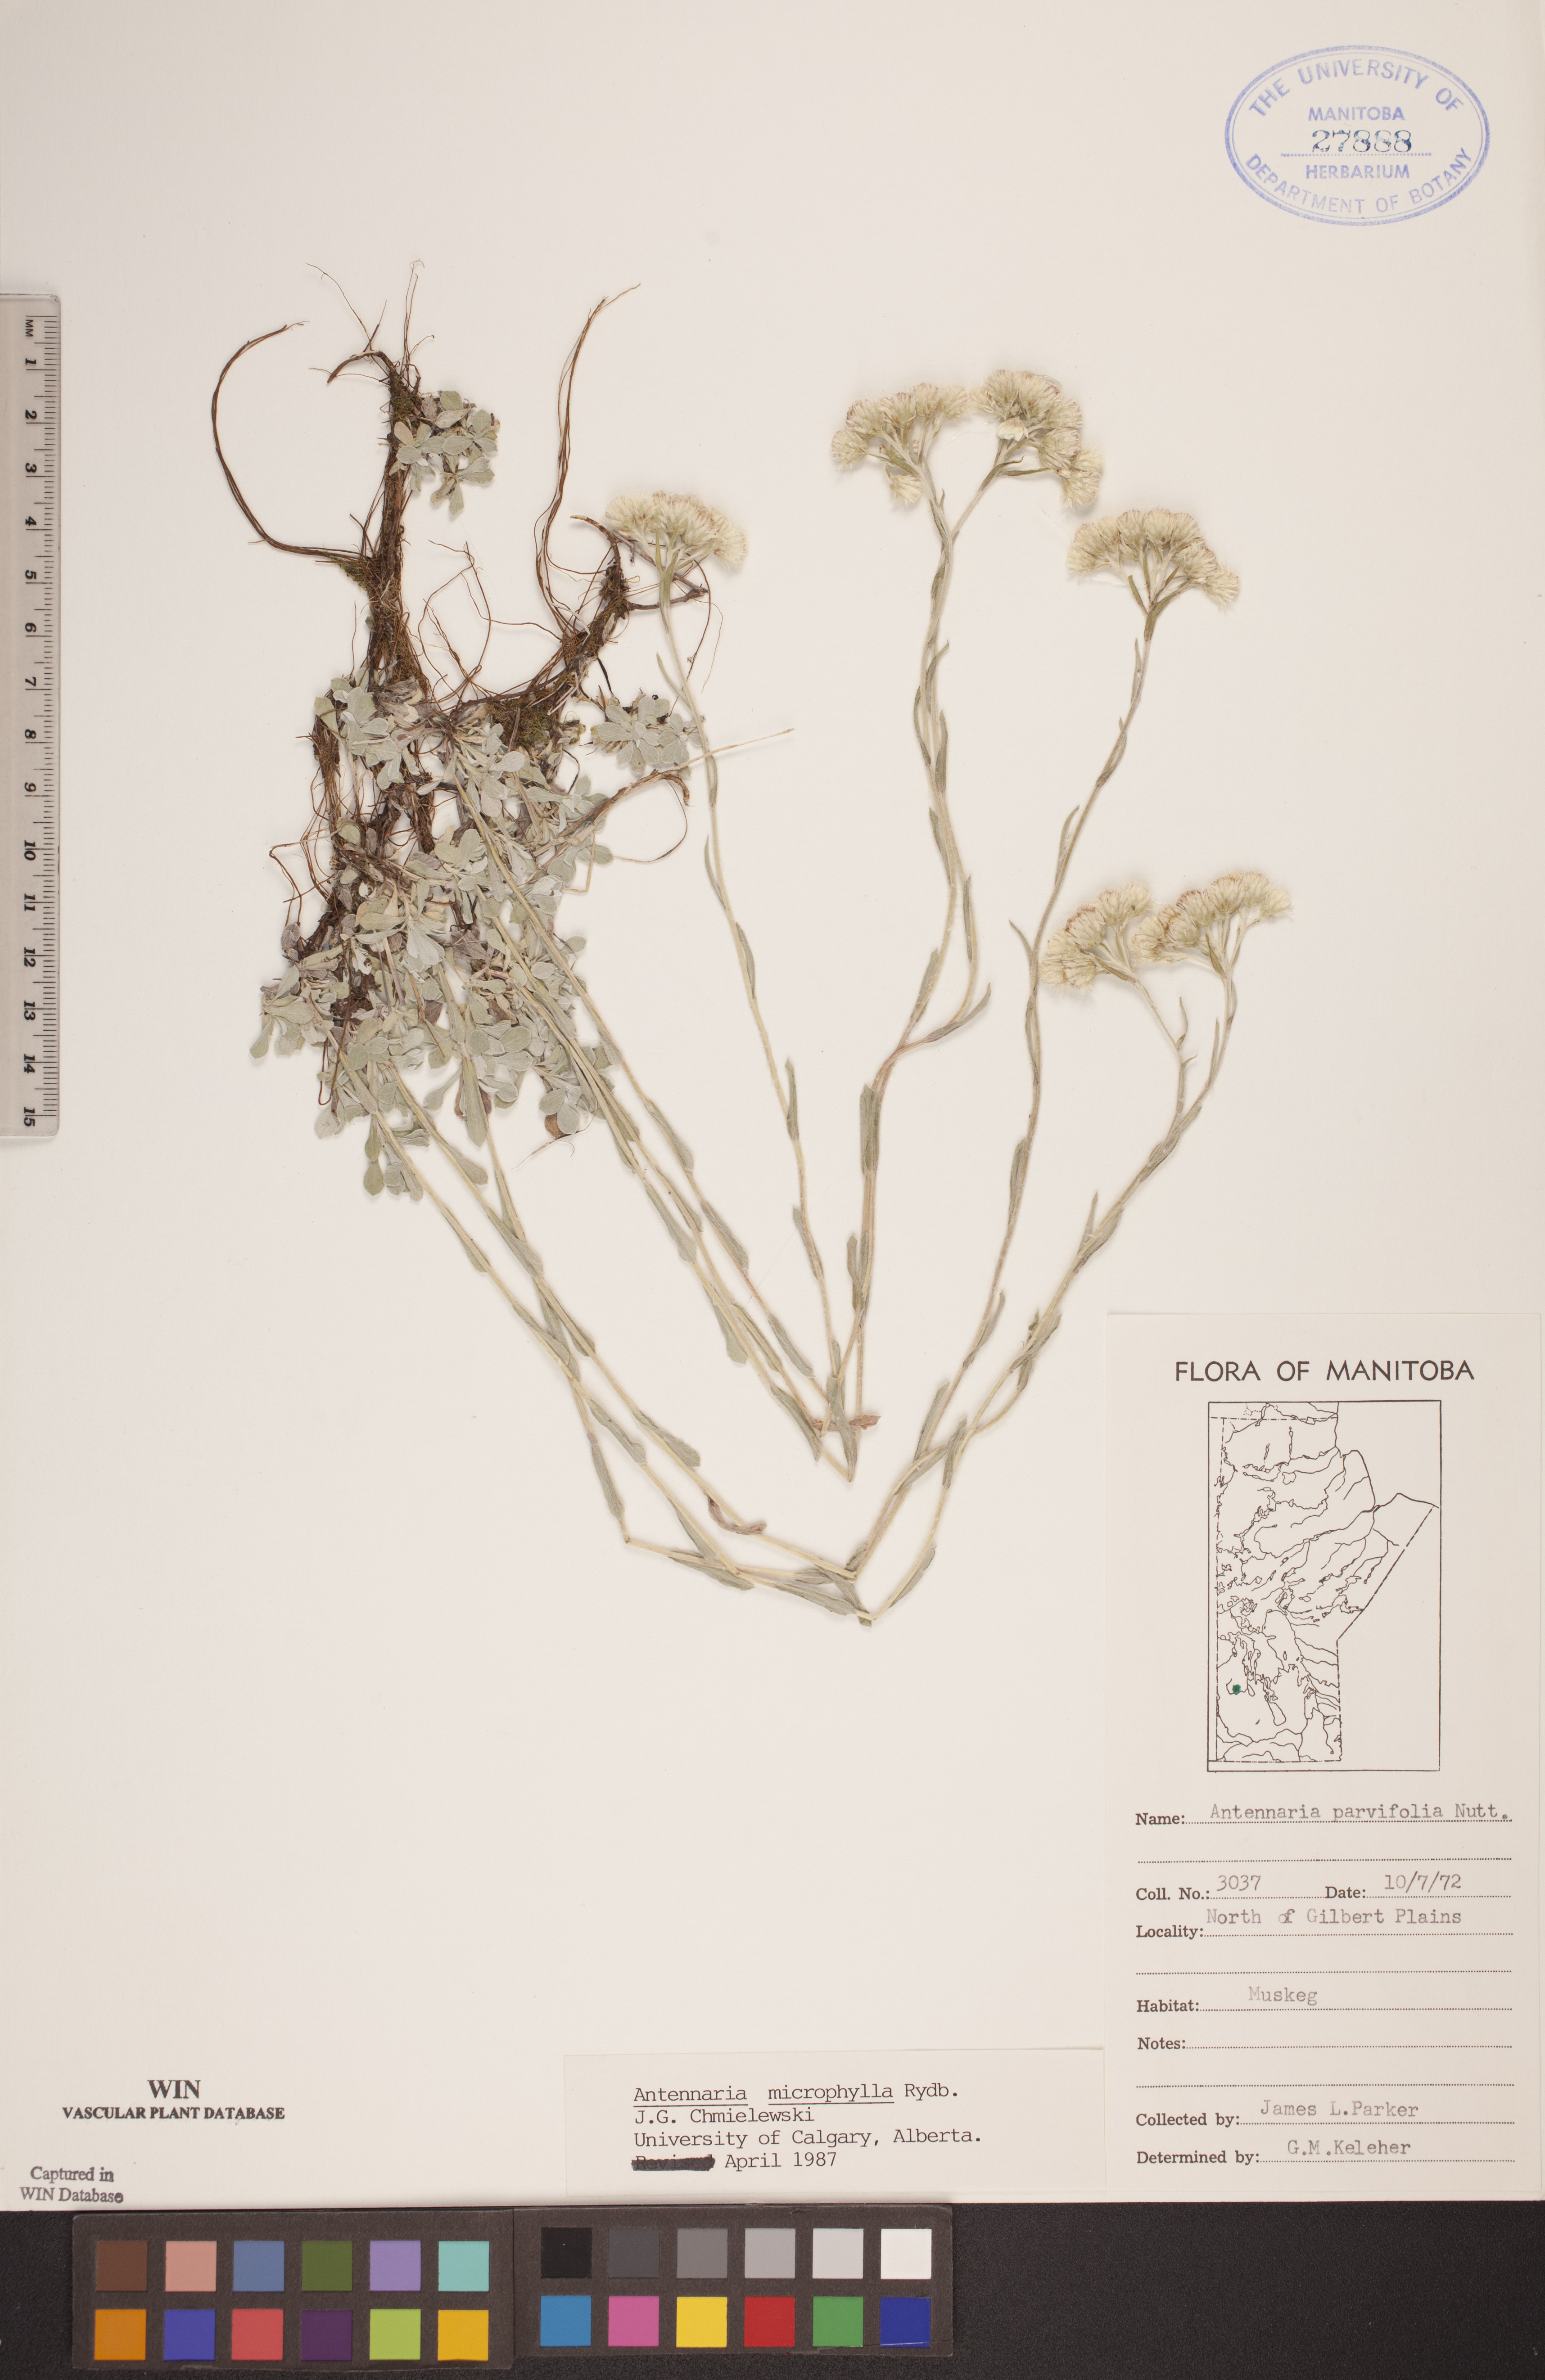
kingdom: Plantae
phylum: Tracheophyta
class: Magnoliopsida
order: Asterales
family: Asteraceae
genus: Antennaria
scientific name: Antennaria microphylla
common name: Littleleaf pussytoes
